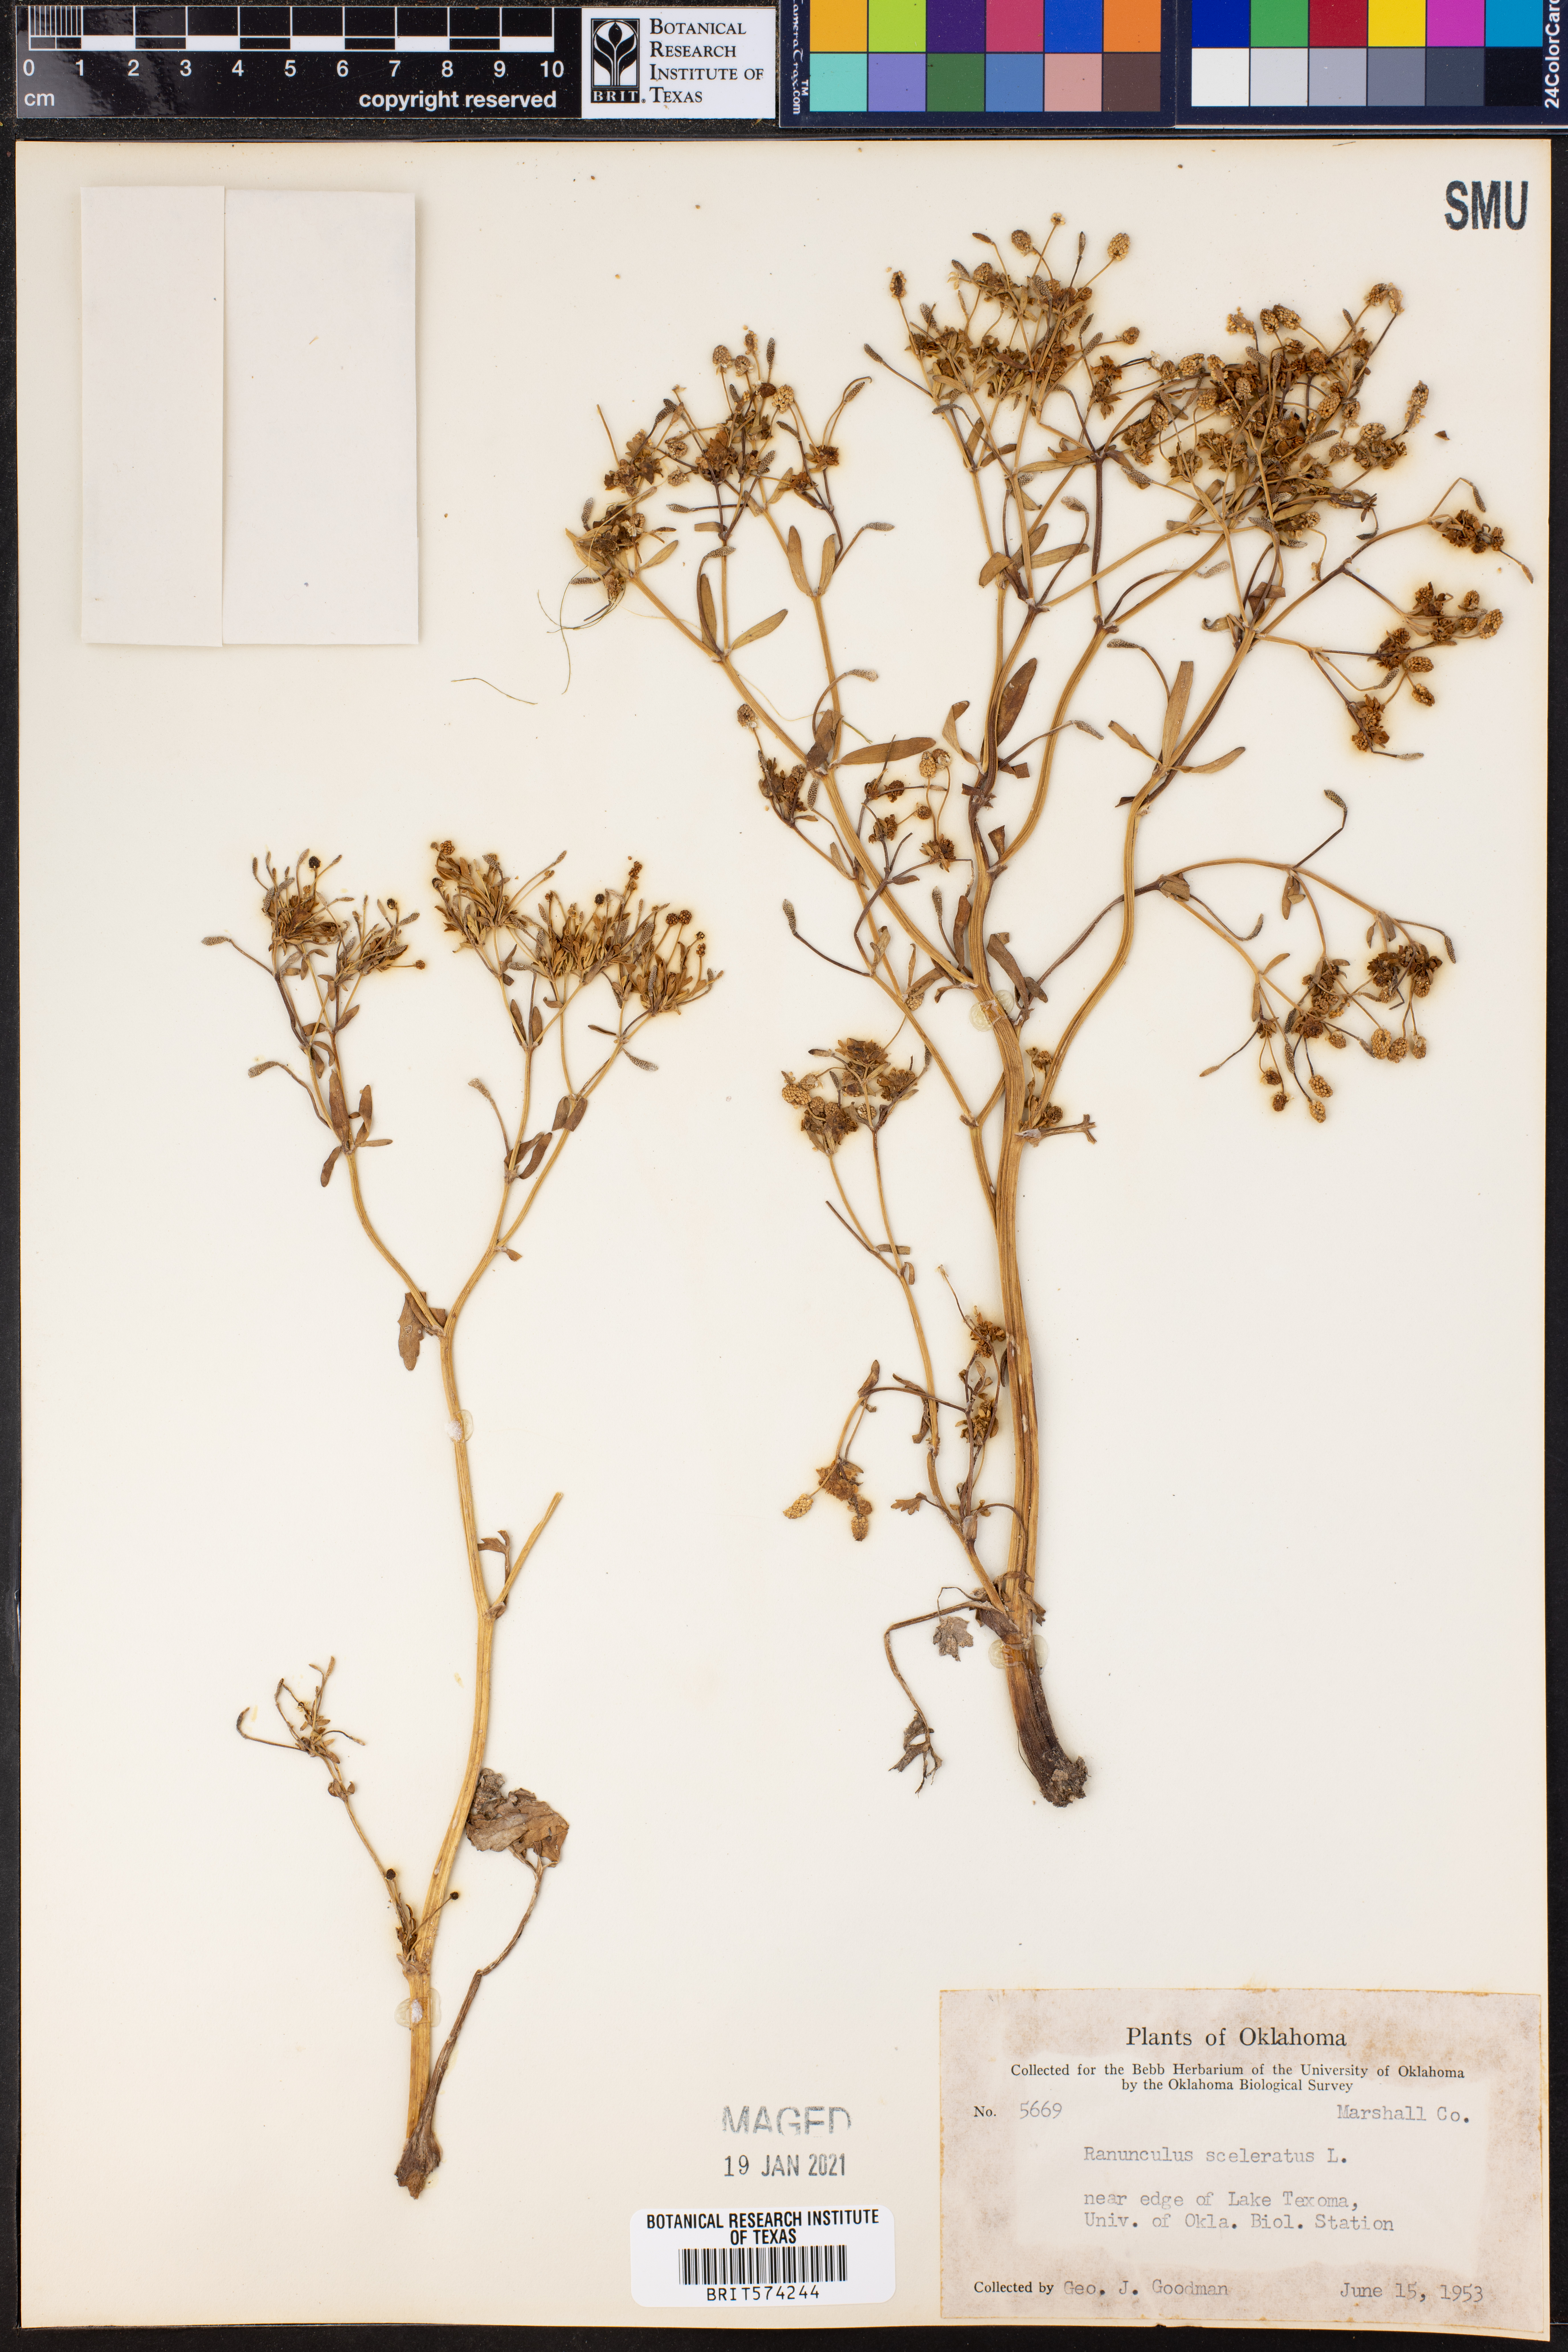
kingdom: Plantae
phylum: Tracheophyta
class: Magnoliopsida
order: Ranunculales
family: Ranunculaceae
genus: Ranunculus
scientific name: Ranunculus sceleratus
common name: Celery-leaved buttercup
